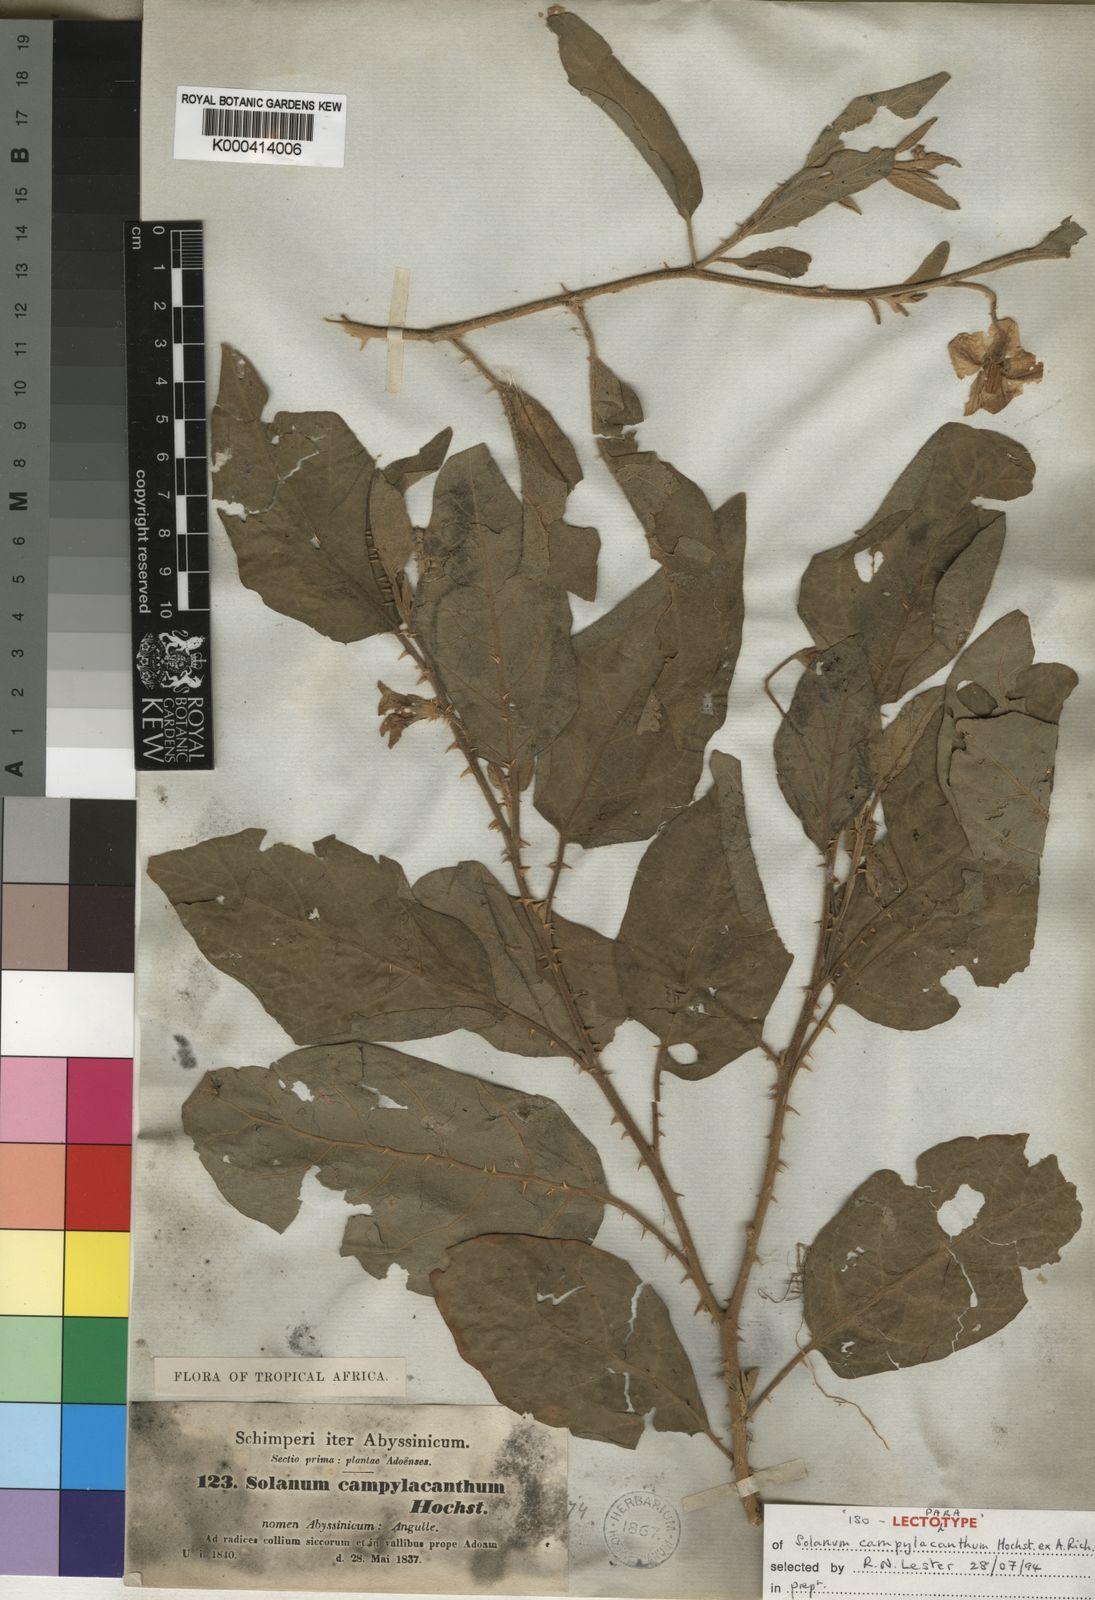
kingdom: Plantae
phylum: Tracheophyta
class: Magnoliopsida
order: Solanales
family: Solanaceae
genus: Solanum
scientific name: Solanum incanum
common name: Bitter apple
